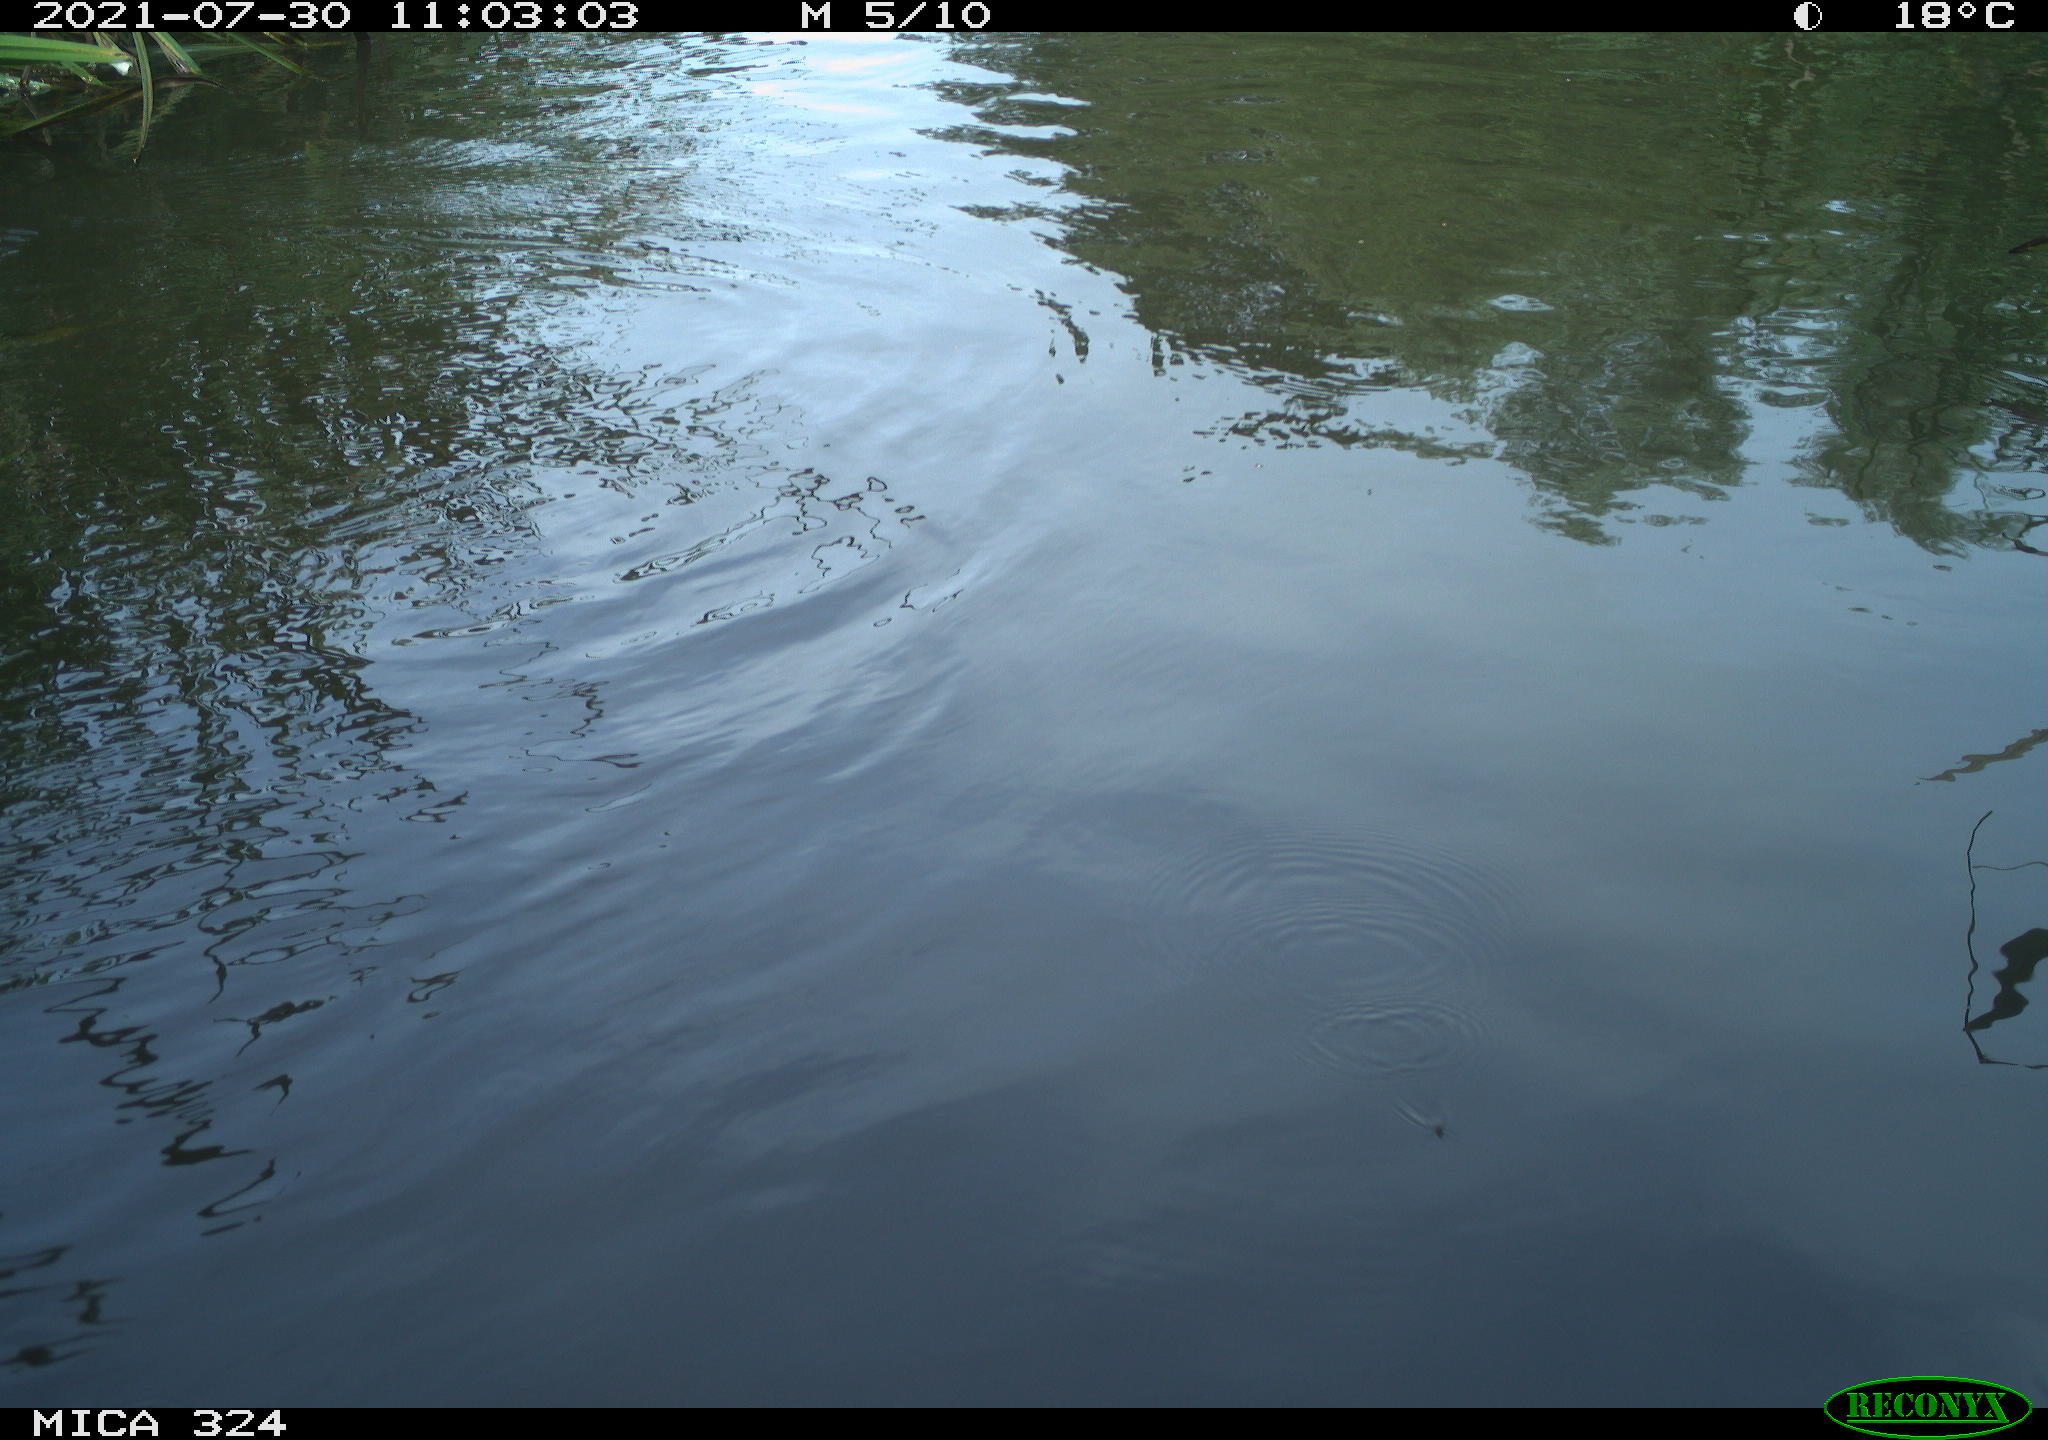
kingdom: Animalia
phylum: Chordata
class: Aves
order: Gruiformes
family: Rallidae
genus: Gallinula
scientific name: Gallinula chloropus
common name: Common moorhen
